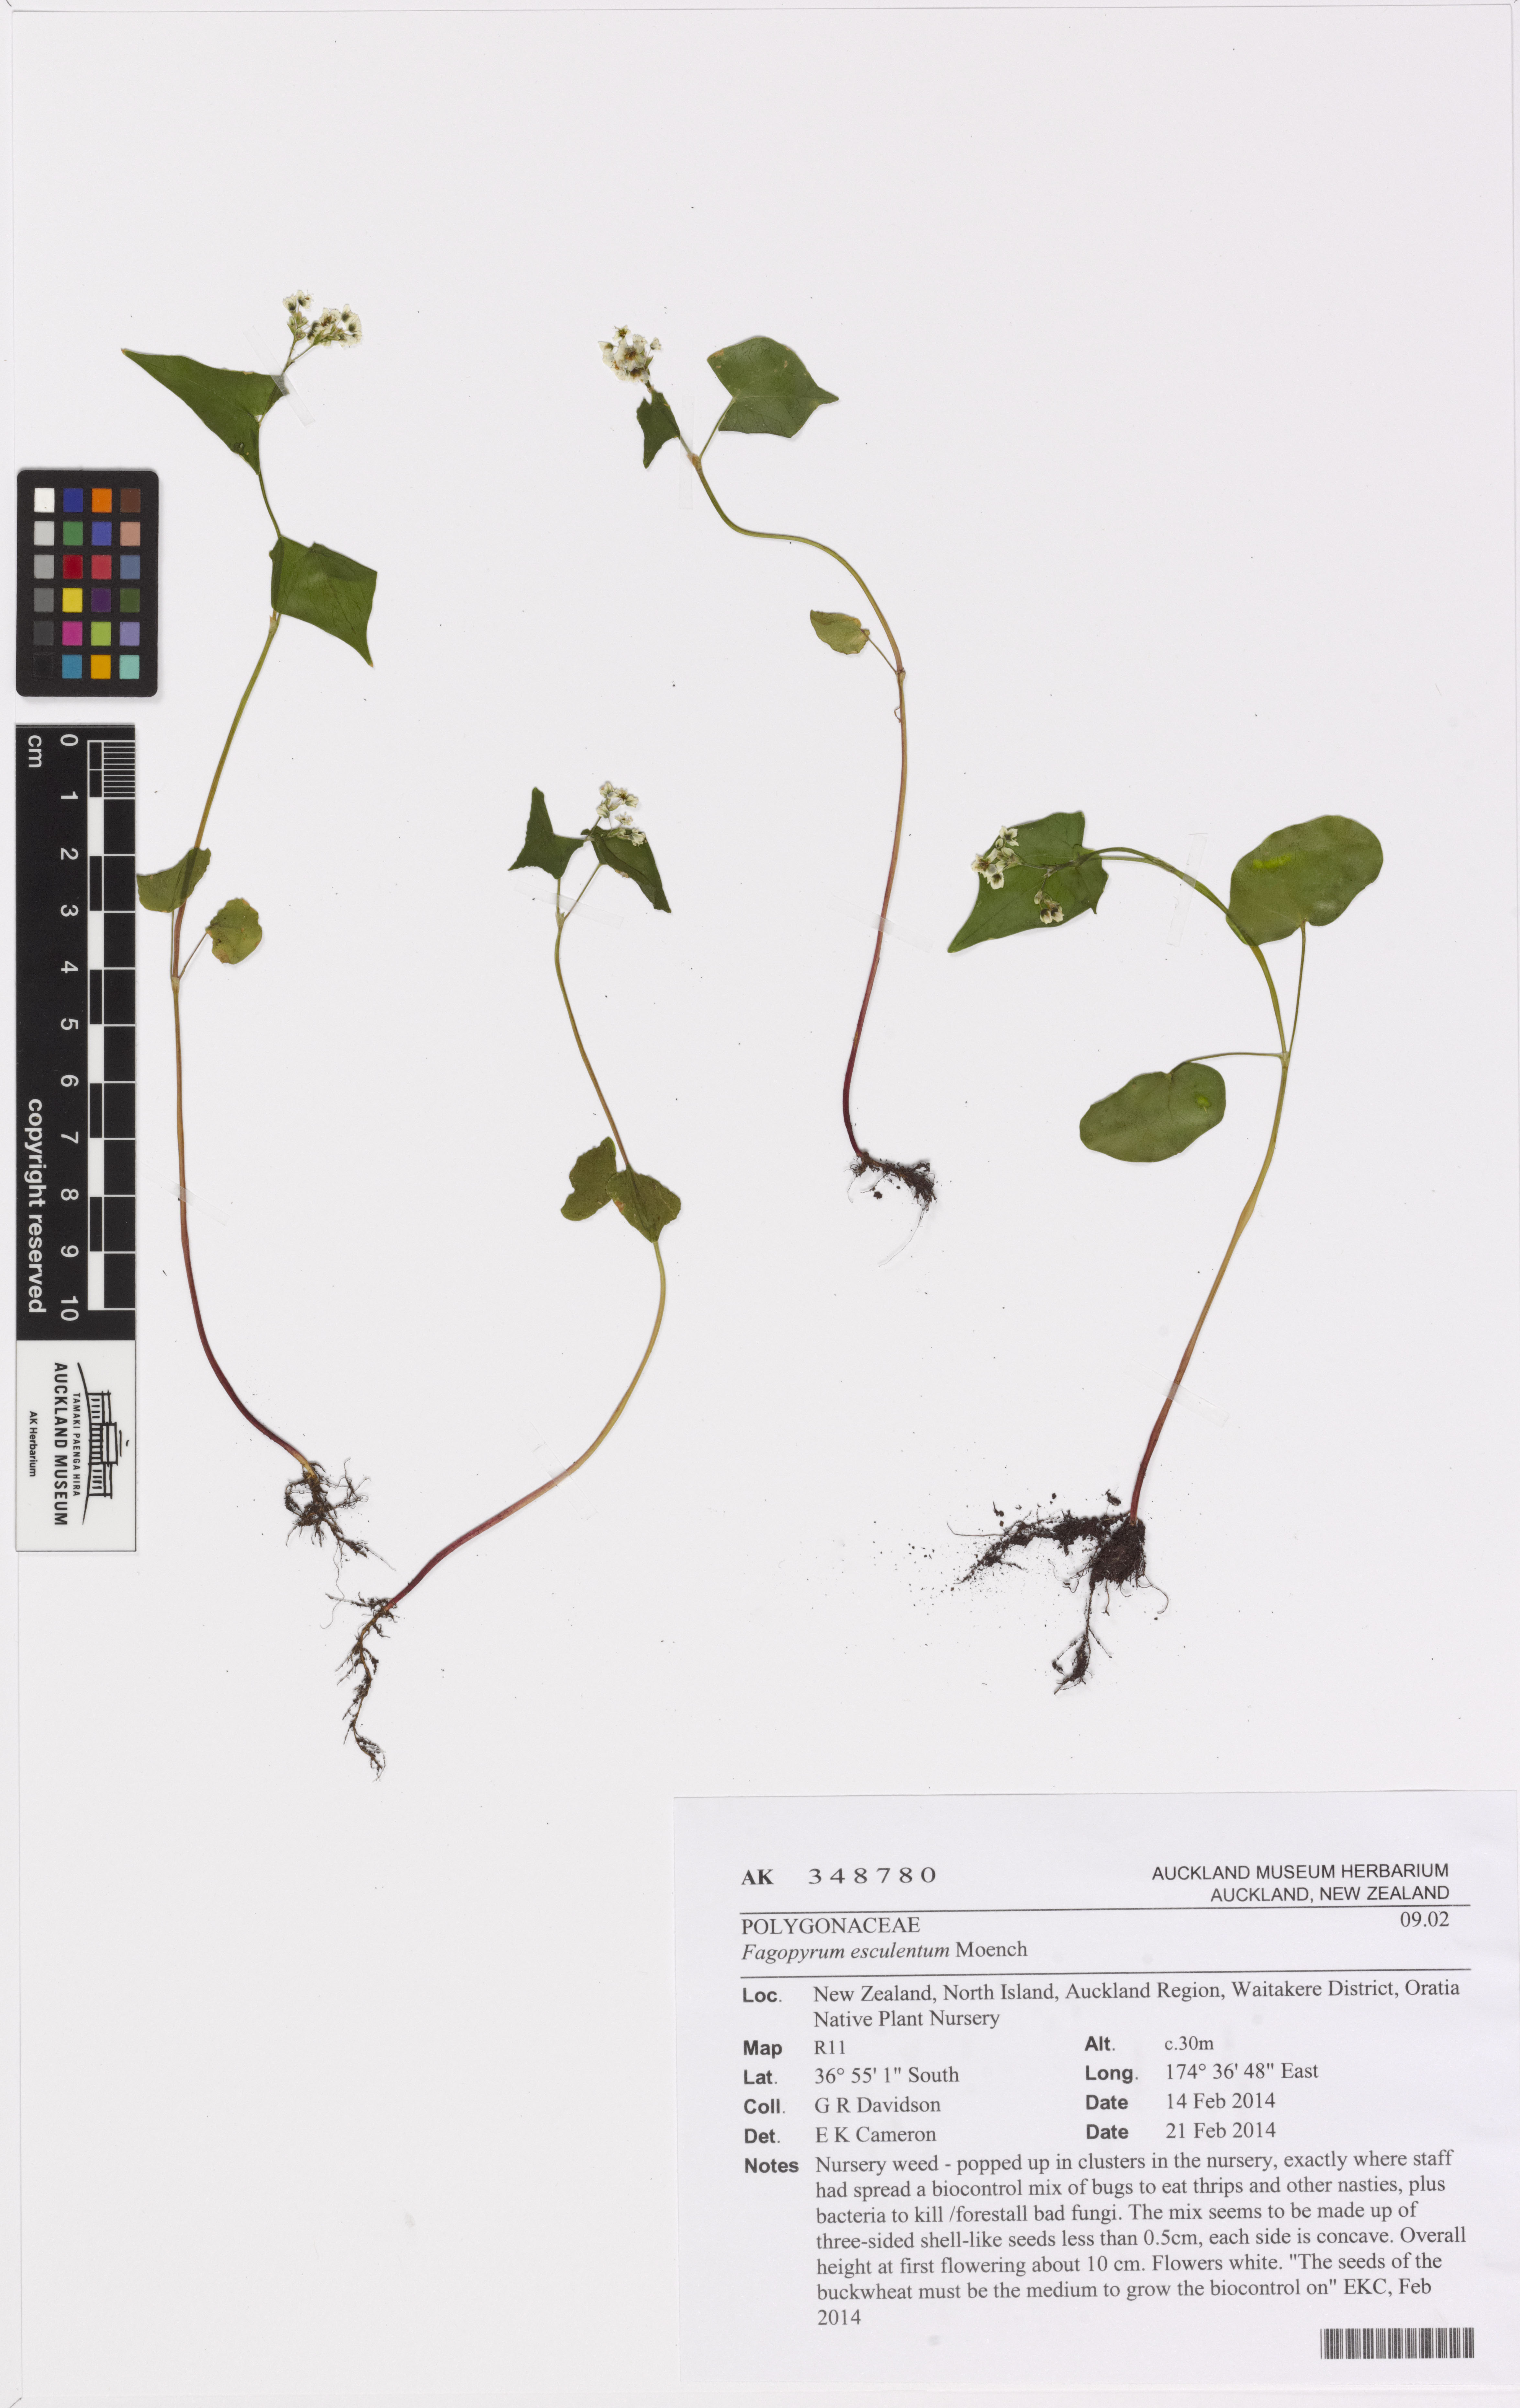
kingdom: Plantae
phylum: Tracheophyta
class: Magnoliopsida
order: Caryophyllales
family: Polygonaceae
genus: Fagopyrum
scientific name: Fagopyrum esculentum
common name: Buckwheat
